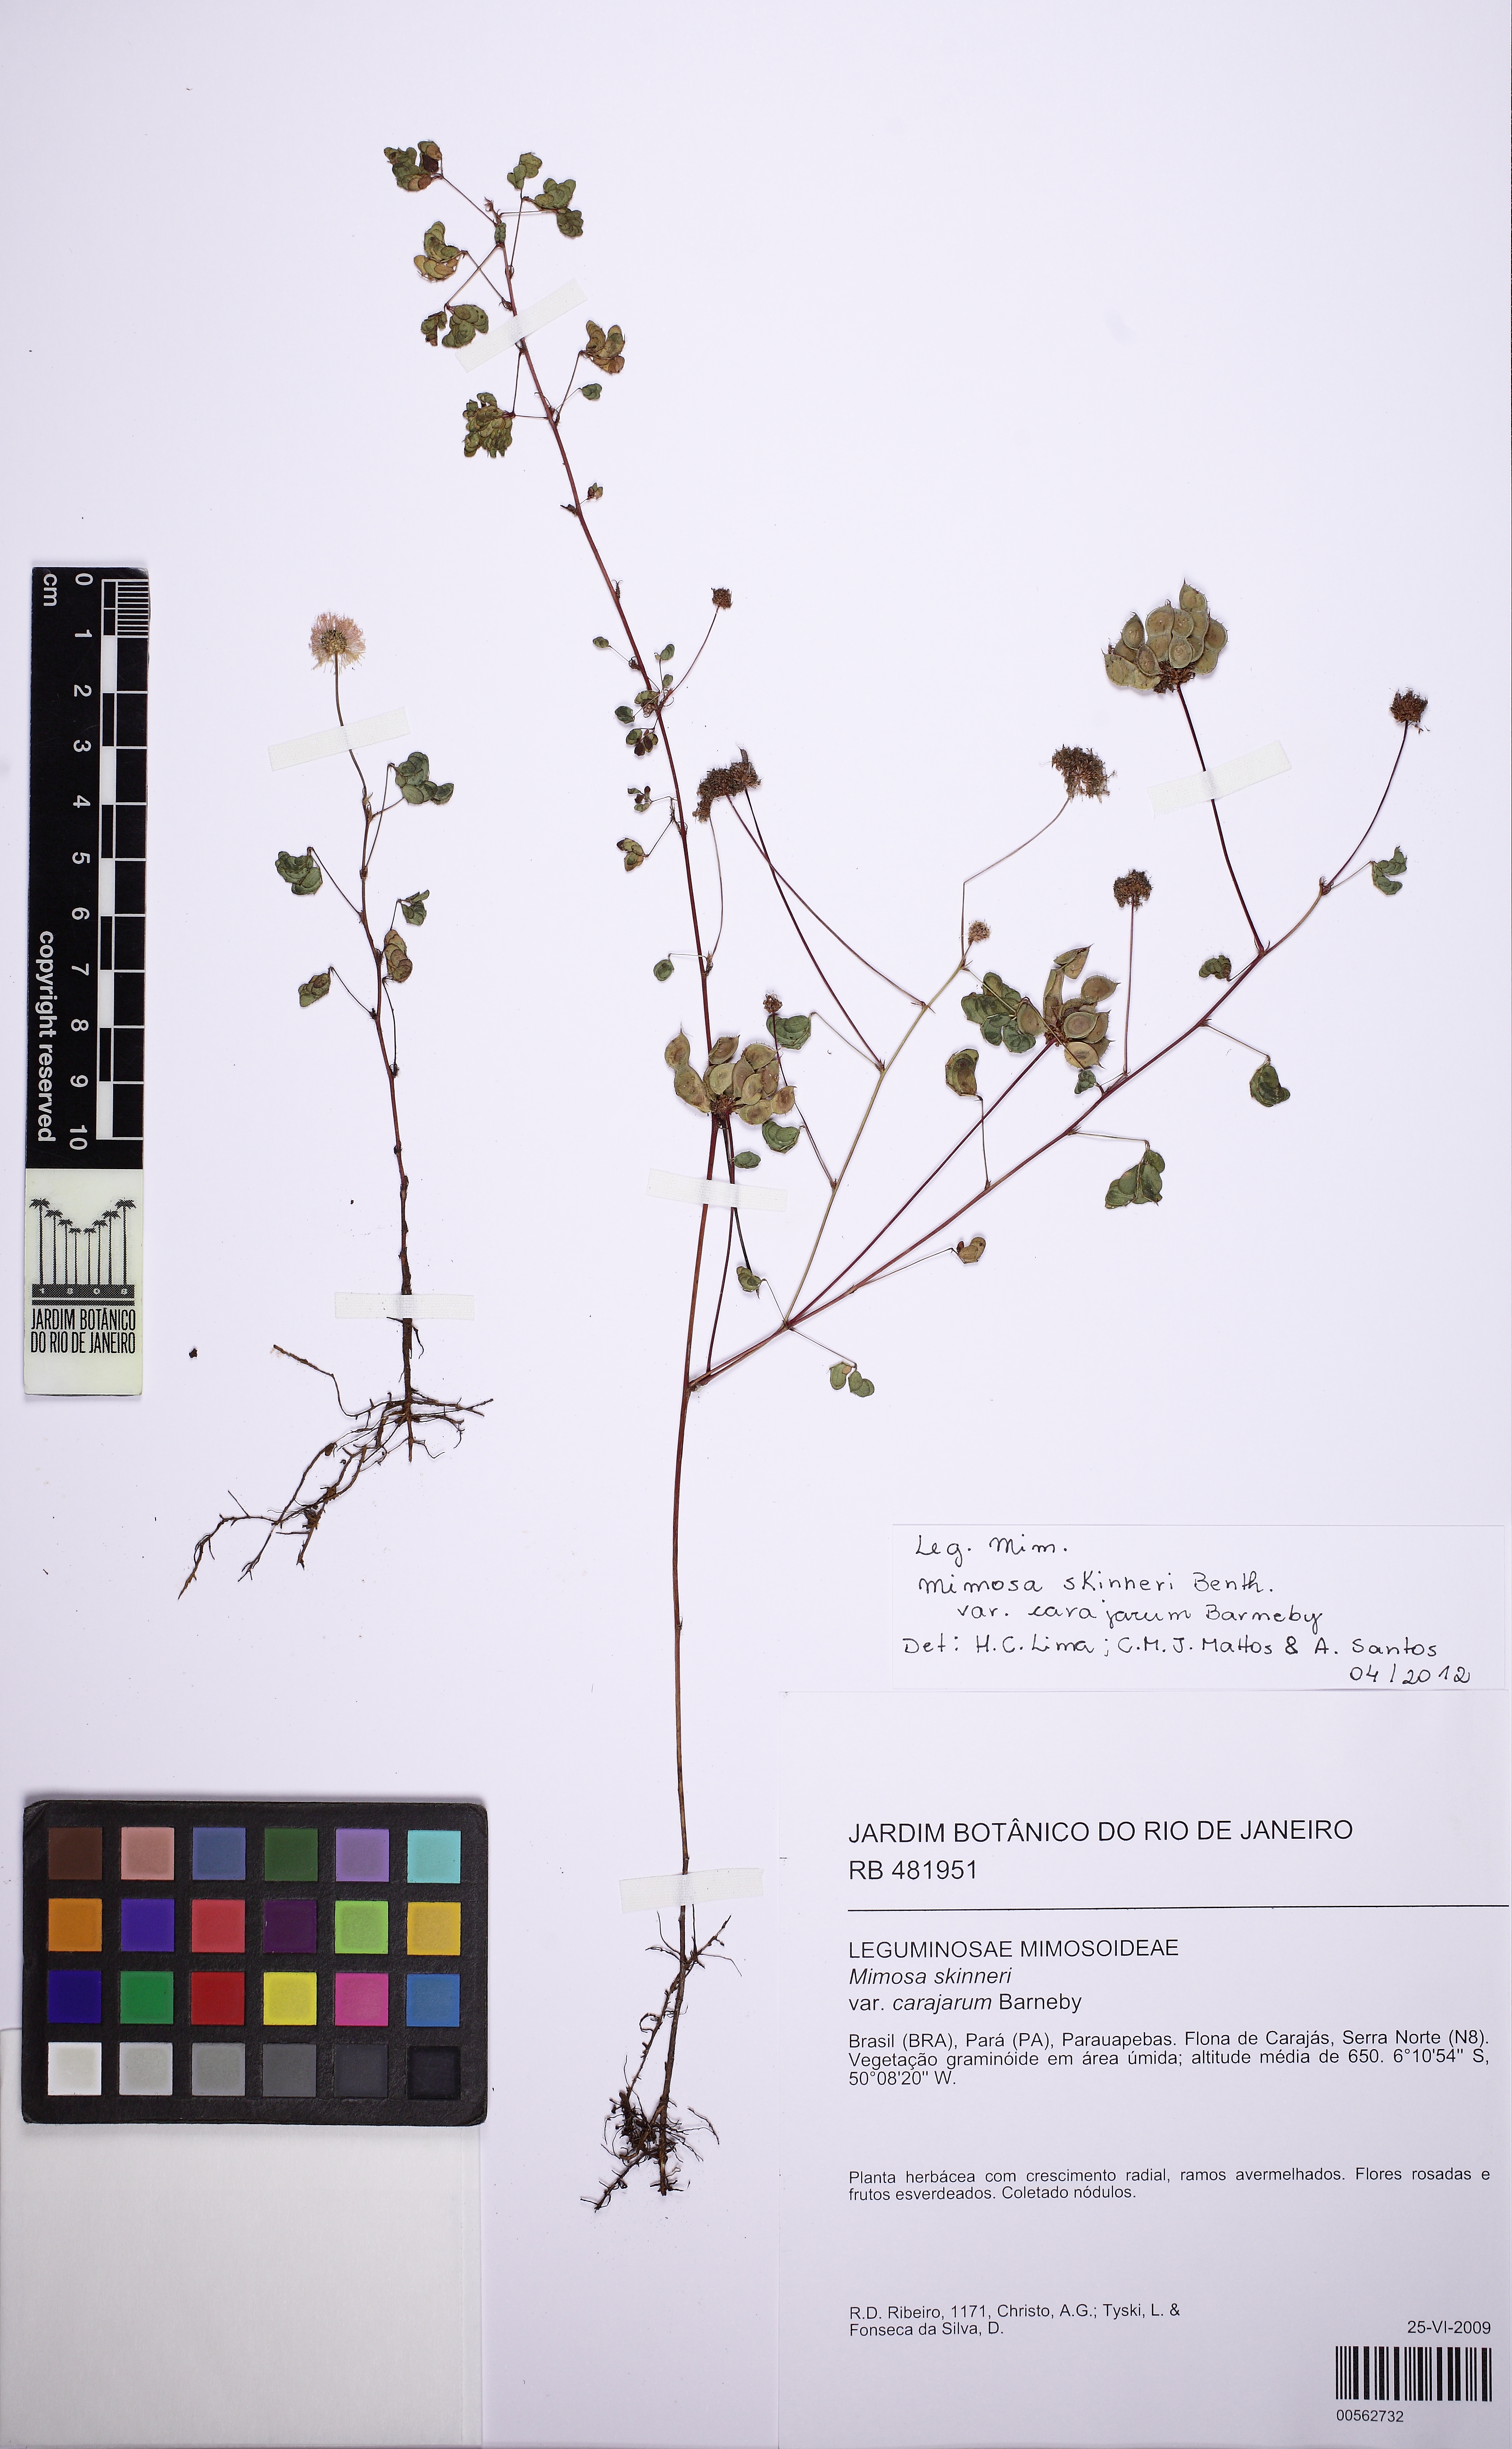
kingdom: Plantae
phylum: Tracheophyta
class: Magnoliopsida
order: Fabales
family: Fabaceae
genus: Mimosa
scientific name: Mimosa skinneri
